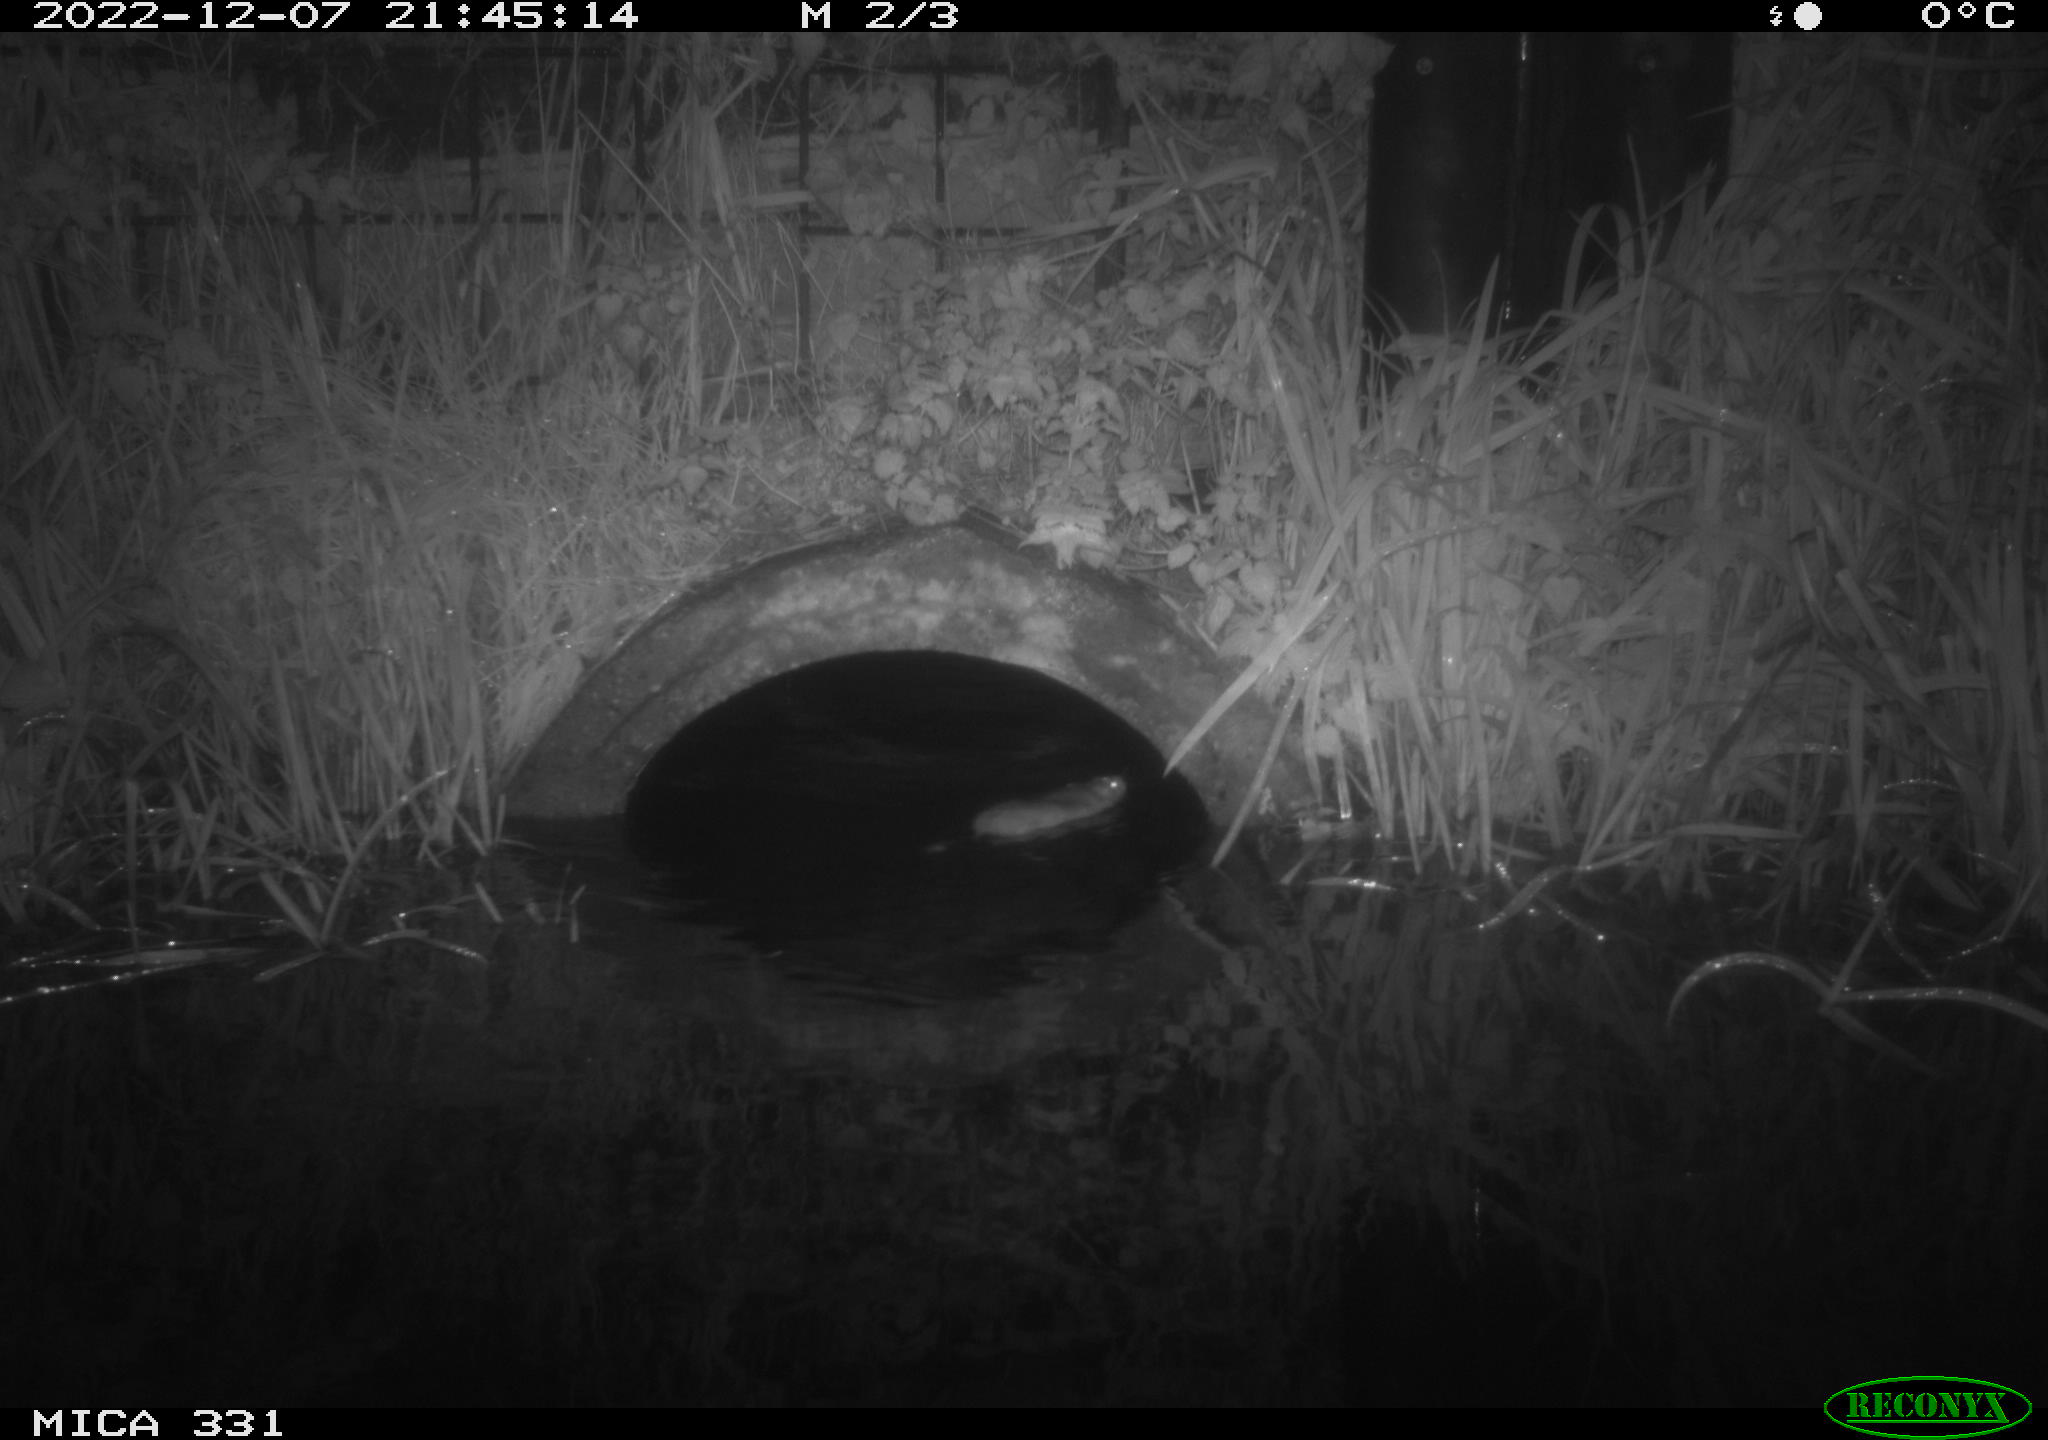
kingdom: Animalia
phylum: Chordata
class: Mammalia
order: Rodentia
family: Muridae
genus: Rattus
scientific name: Rattus norvegicus
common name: Brown rat
